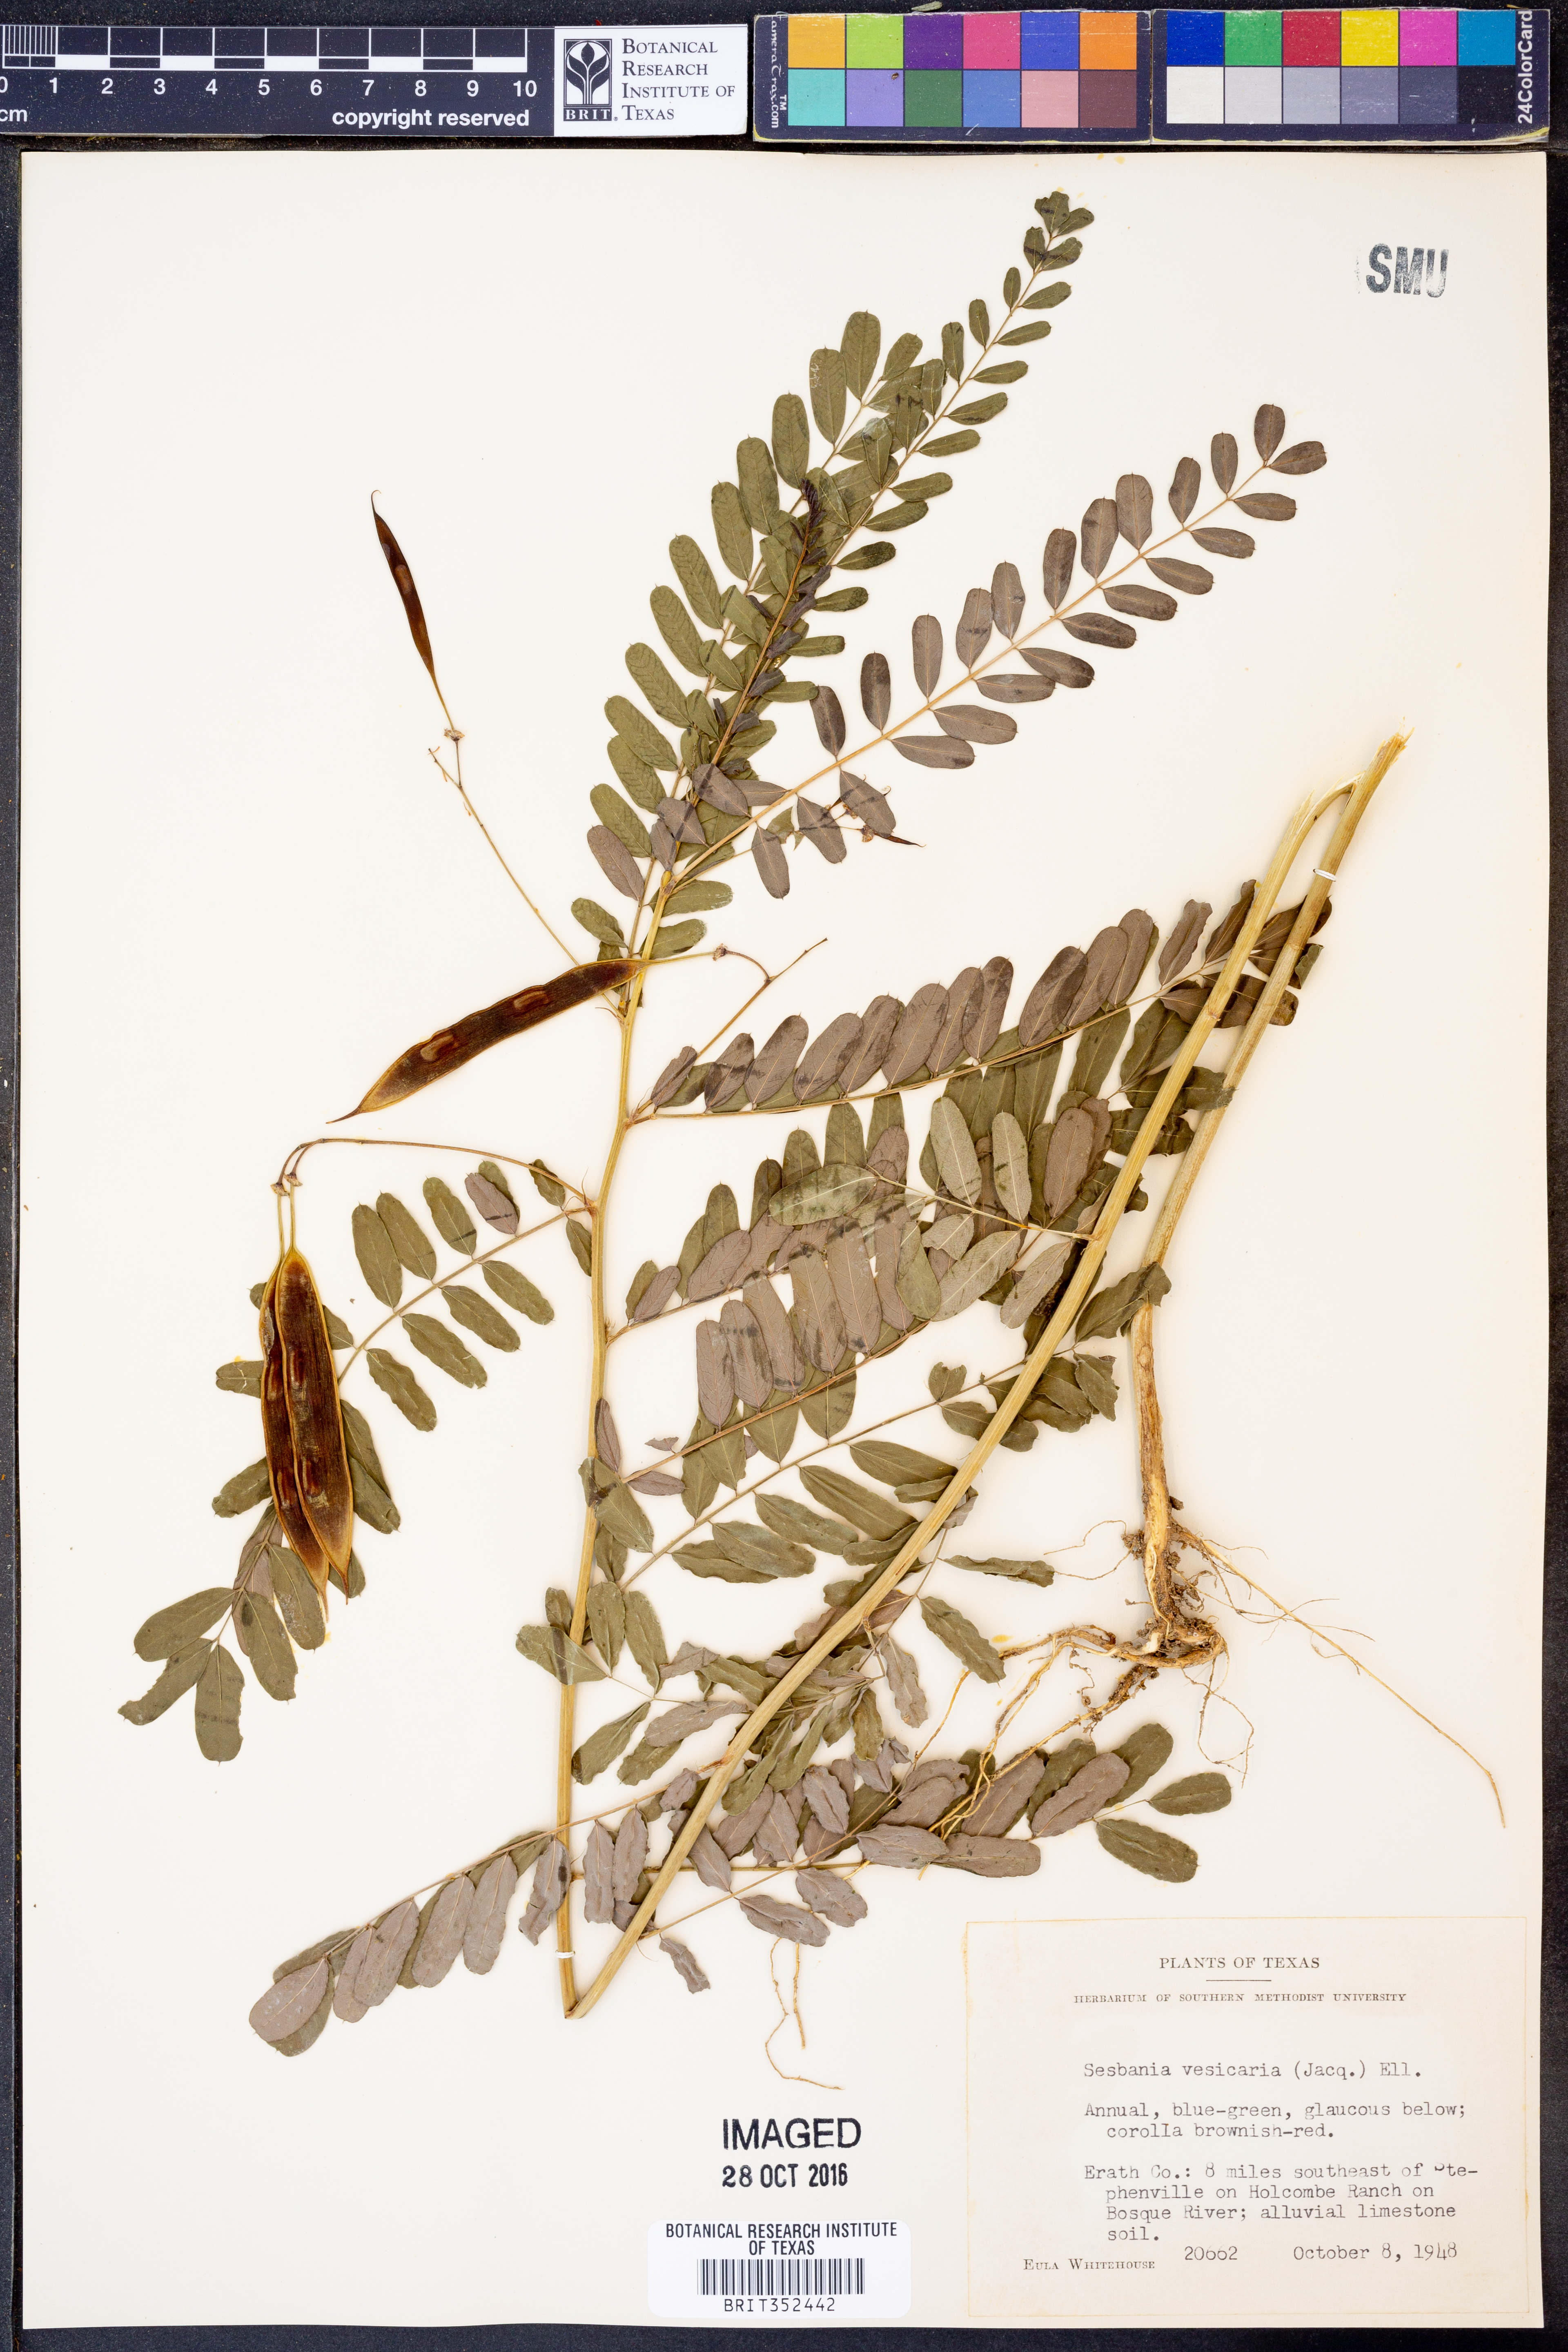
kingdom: Plantae
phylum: Tracheophyta
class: Magnoliopsida
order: Fabales
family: Fabaceae
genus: Sesbania
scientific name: Sesbania vesicaria
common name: Bagpod
